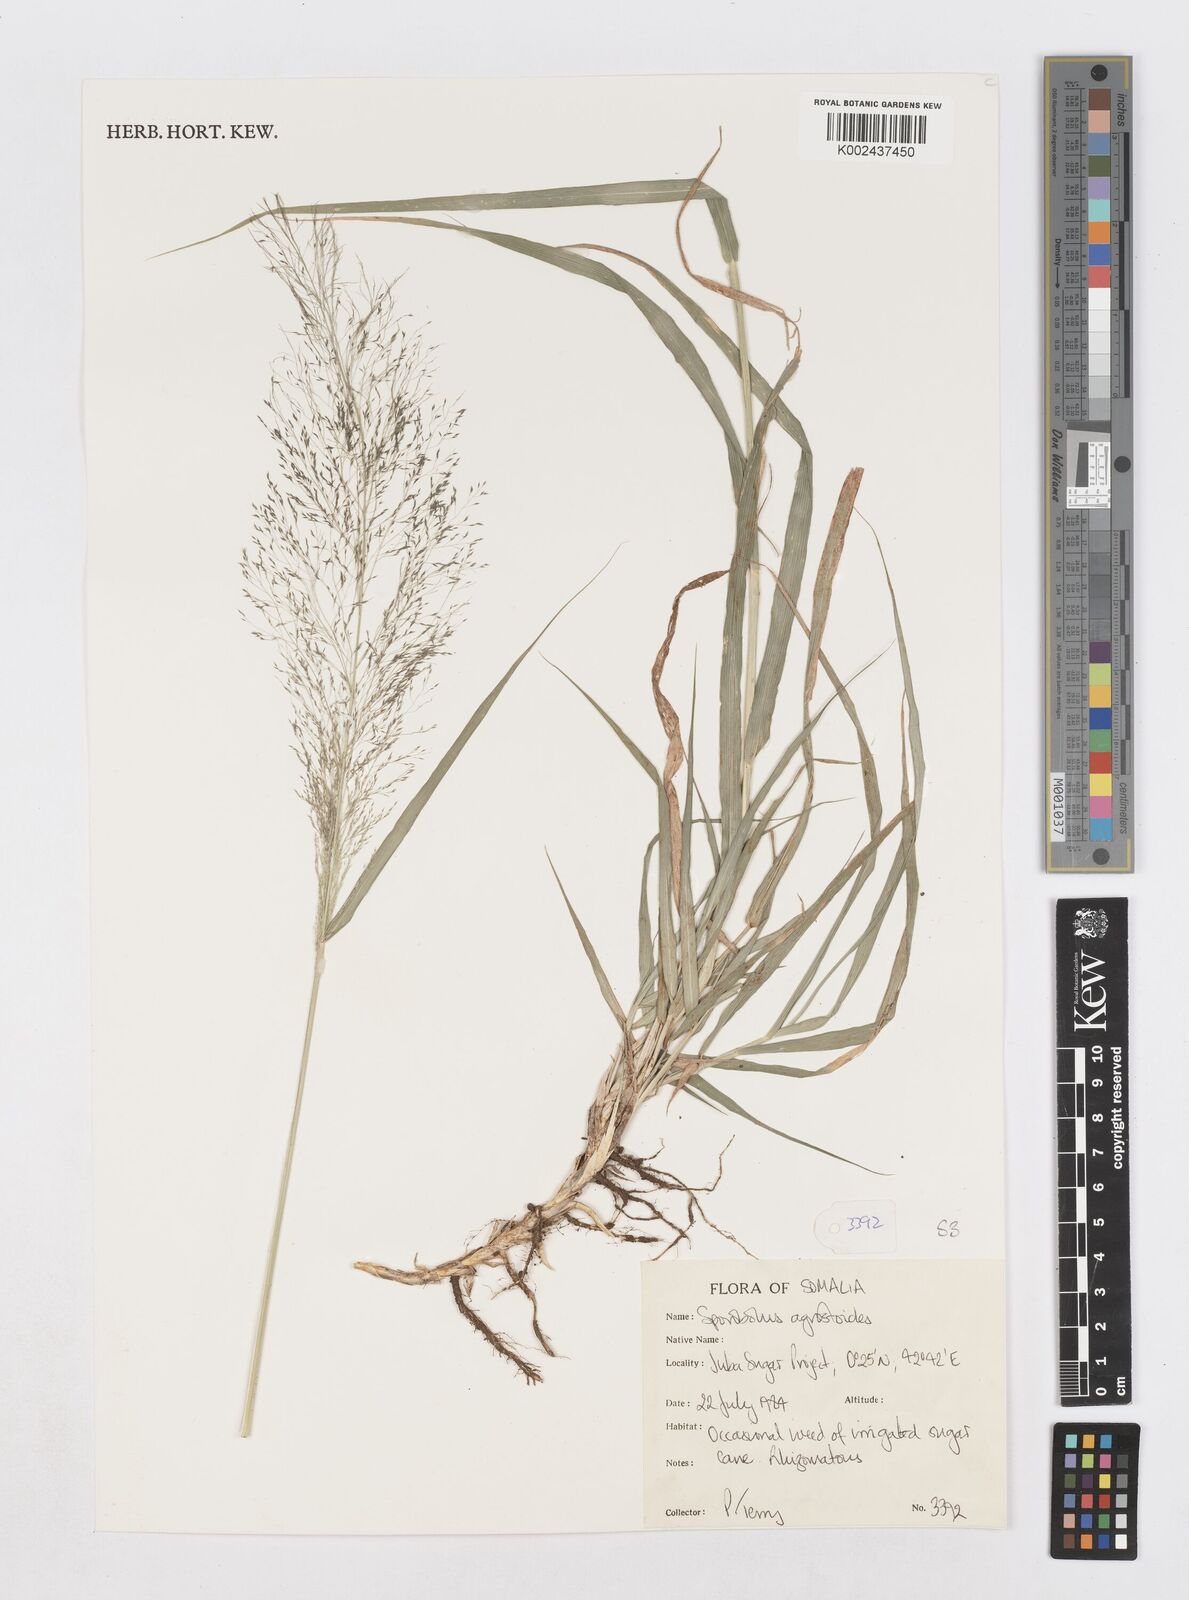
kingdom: Plantae
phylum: Tracheophyta
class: Liliopsida
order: Poales
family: Poaceae
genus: Sporobolus
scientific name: Sporobolus agrostoides
